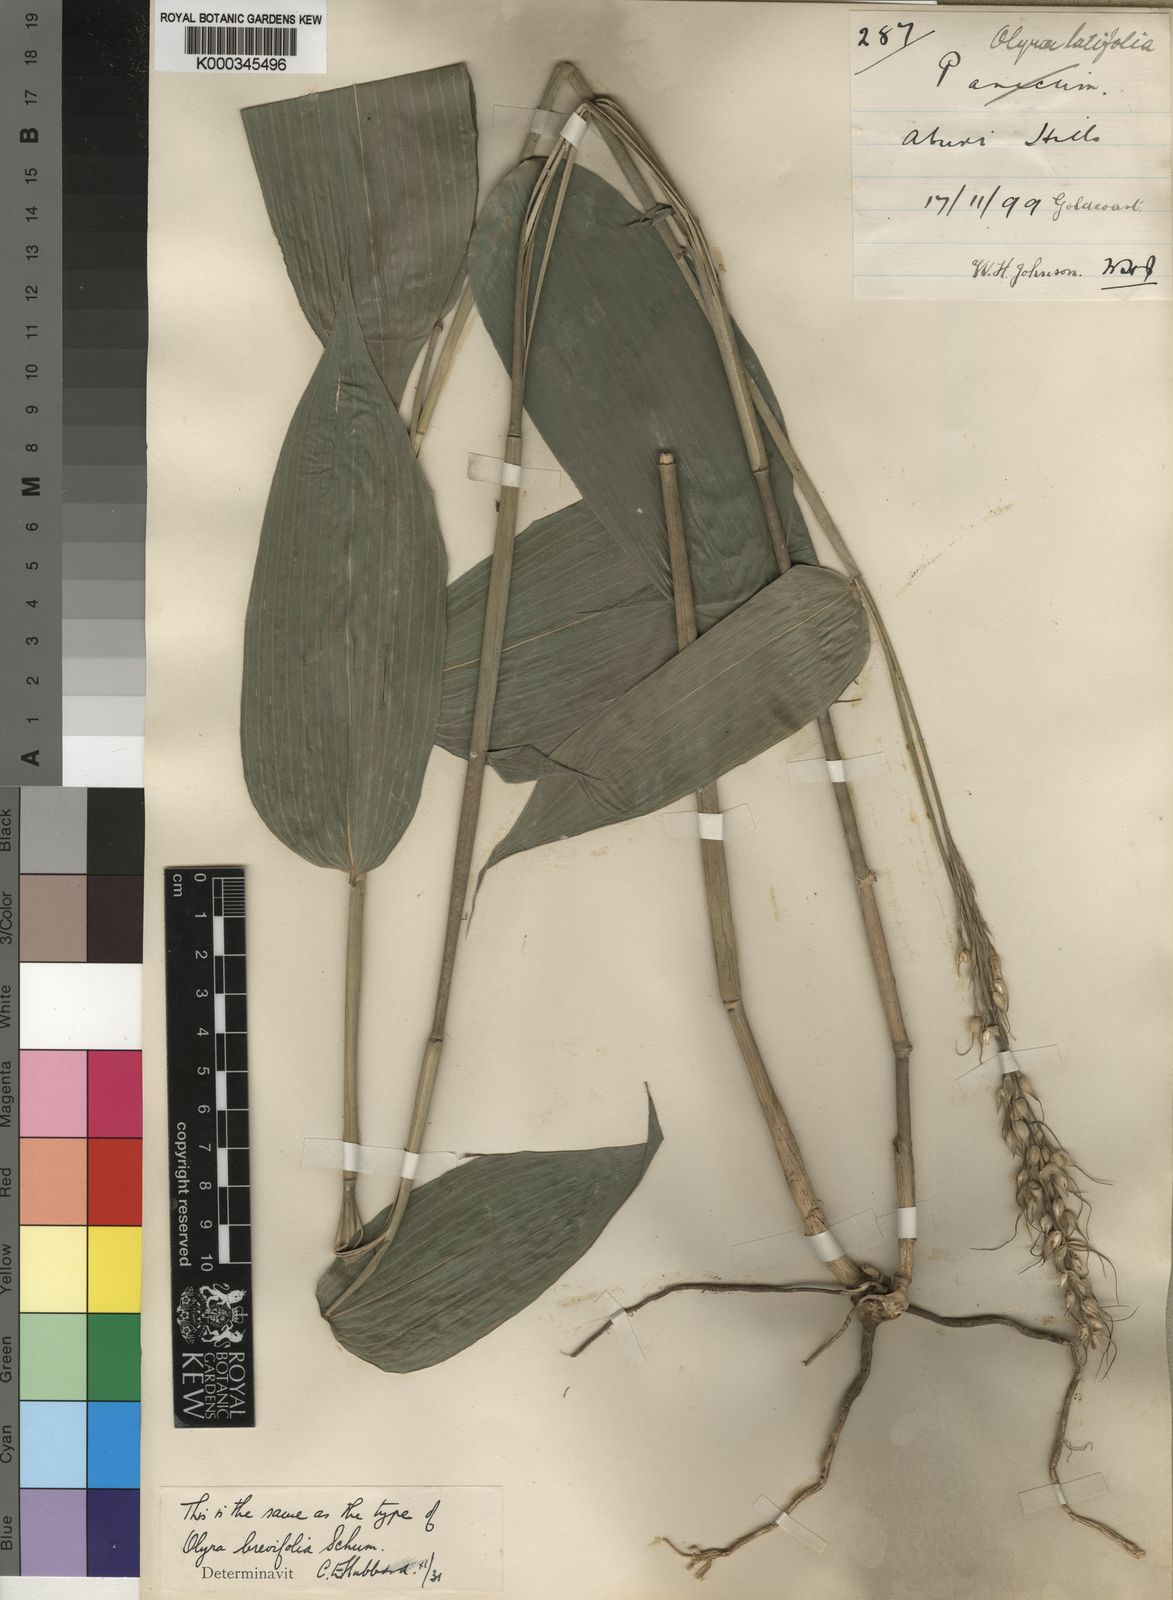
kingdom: Plantae
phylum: Tracheophyta
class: Liliopsida
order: Poales
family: Poaceae
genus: Olyra
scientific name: Olyra latifolia
